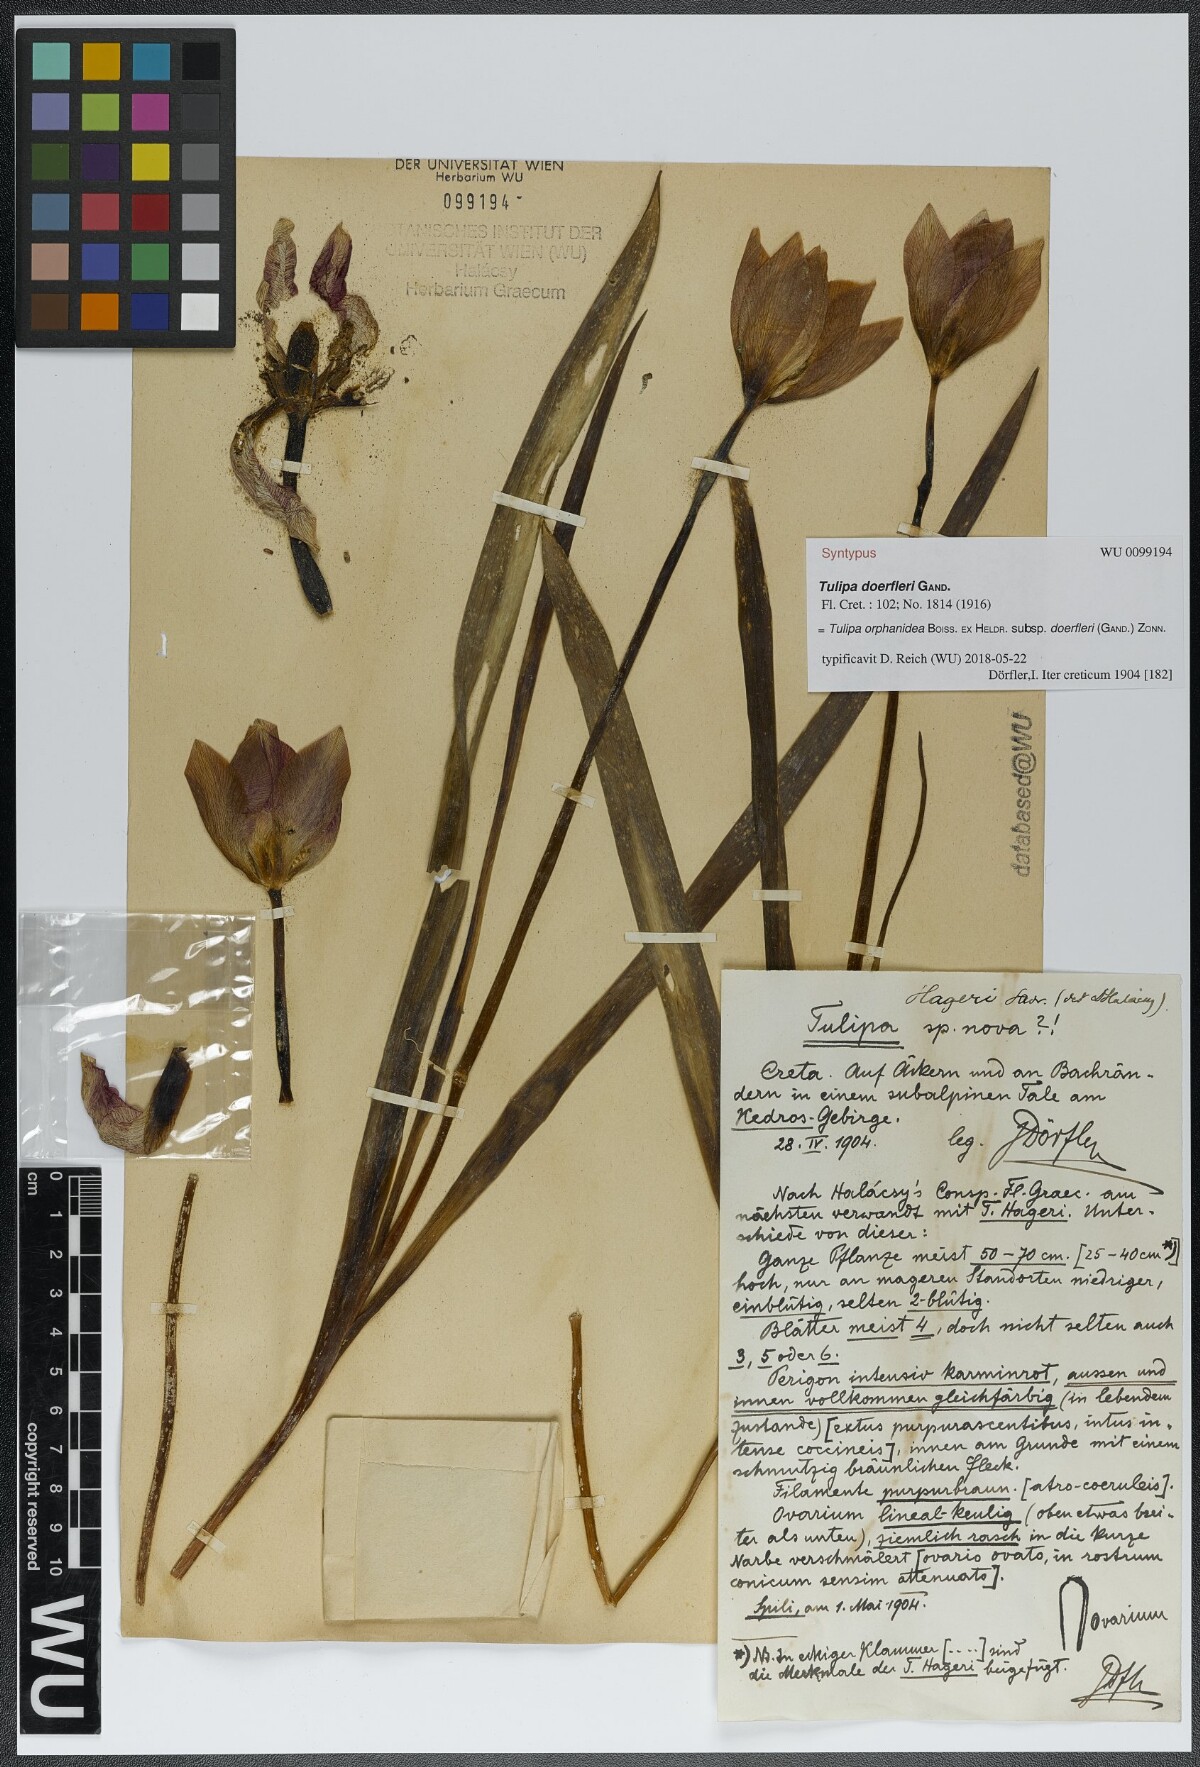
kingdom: Plantae
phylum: Tracheophyta
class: Liliopsida
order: Liliales
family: Liliaceae
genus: Tulipa
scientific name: Tulipa orphanidea
